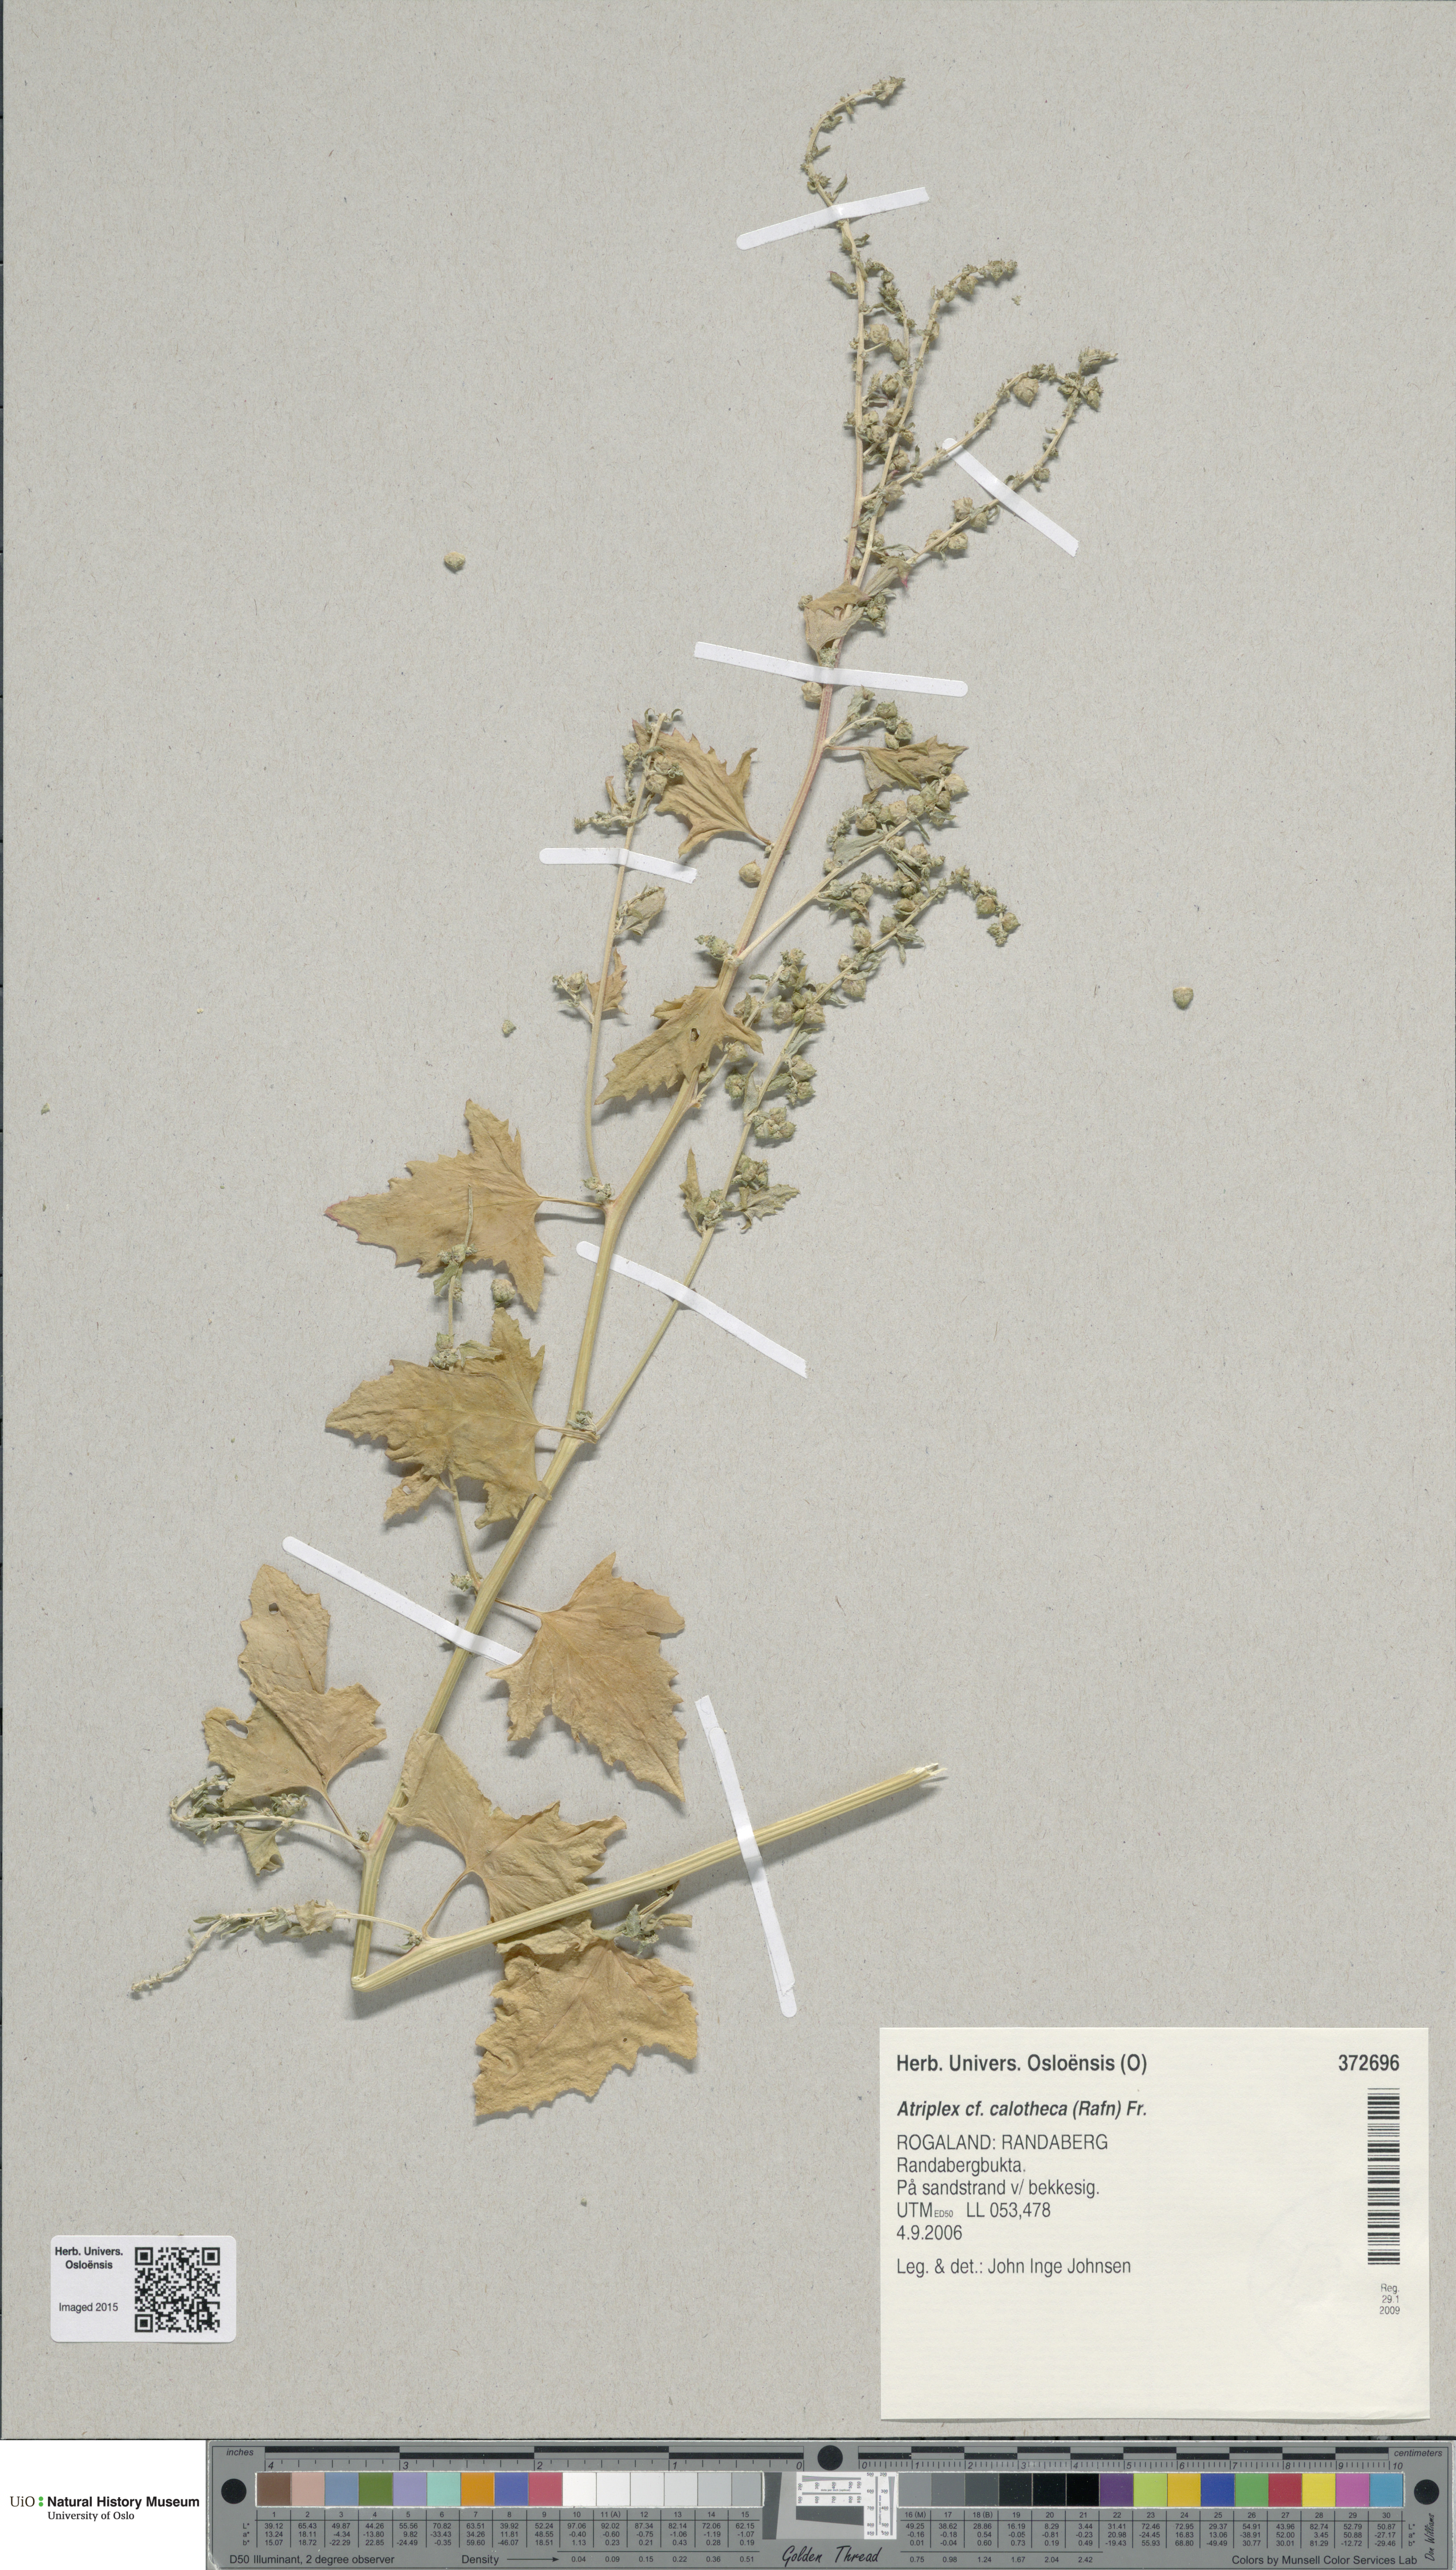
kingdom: Plantae
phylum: Tracheophyta
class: Magnoliopsida
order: Caryophyllales
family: Amaranthaceae
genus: Atriplex
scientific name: Atriplex calotheca
